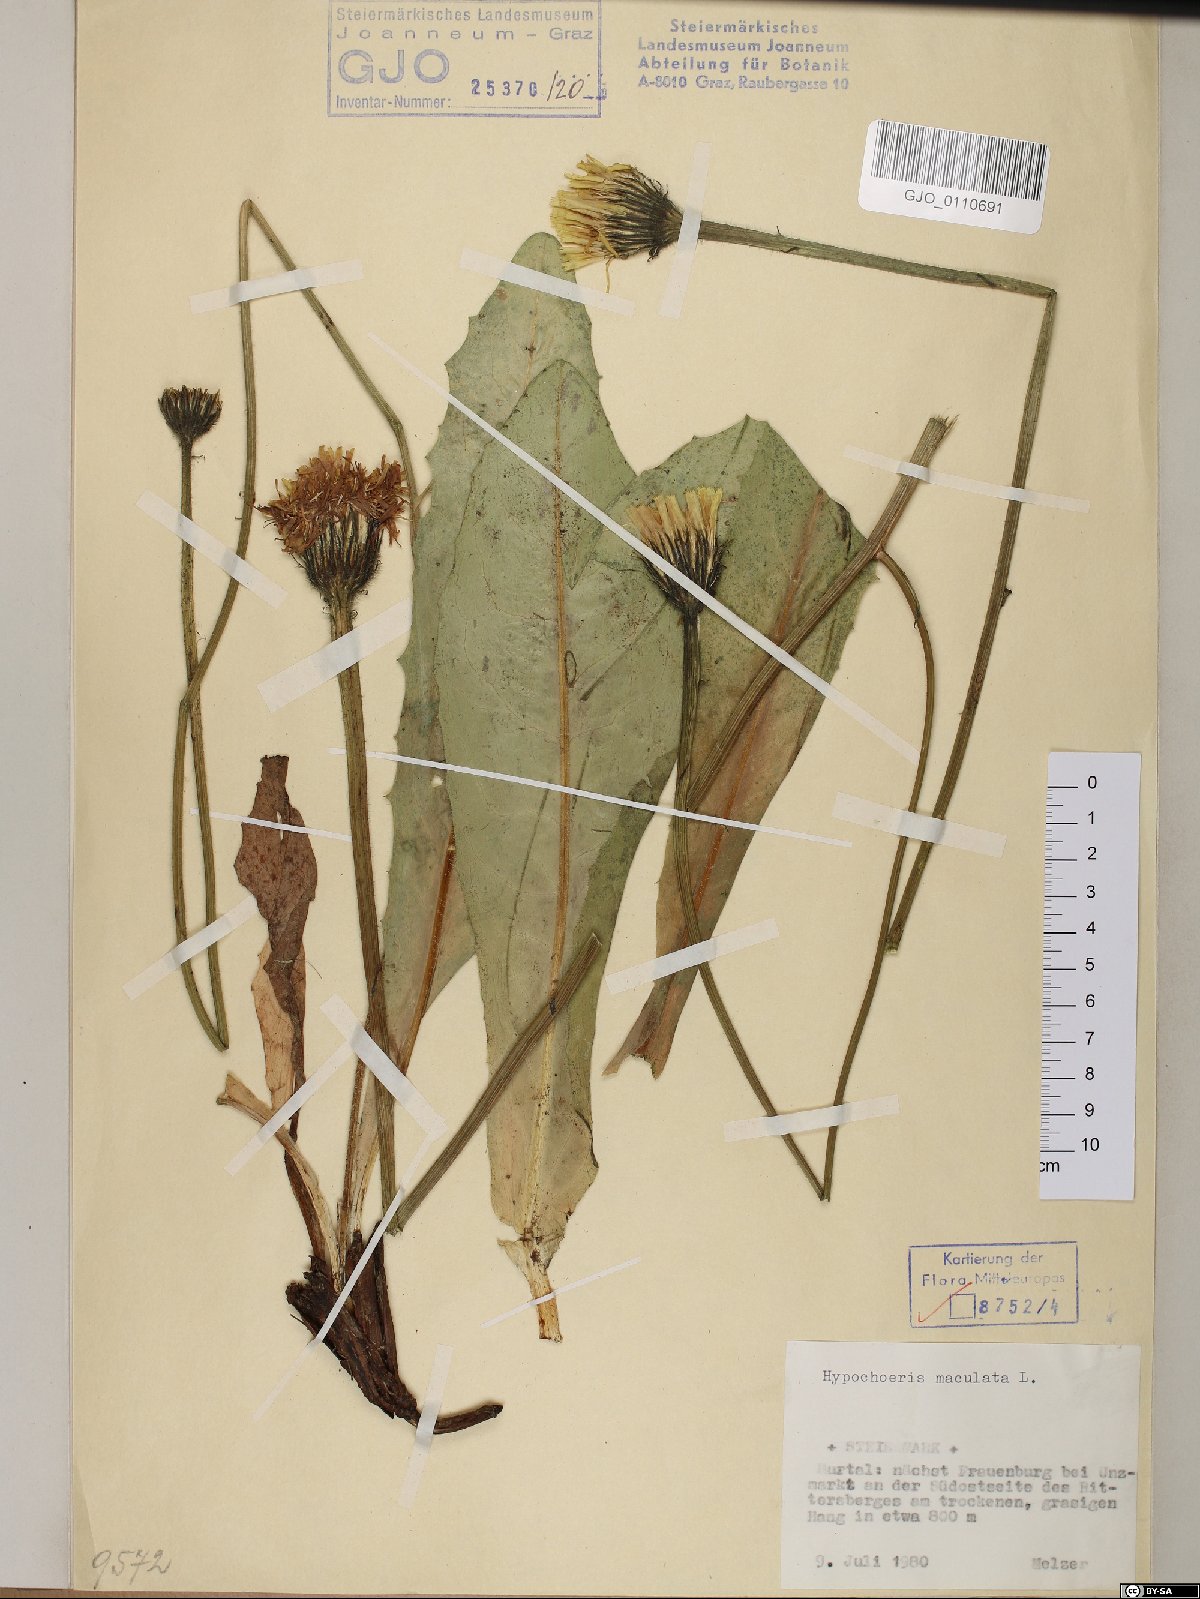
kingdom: Plantae
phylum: Tracheophyta
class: Magnoliopsida
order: Asterales
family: Asteraceae
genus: Trommsdorffia
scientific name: Trommsdorffia maculata
